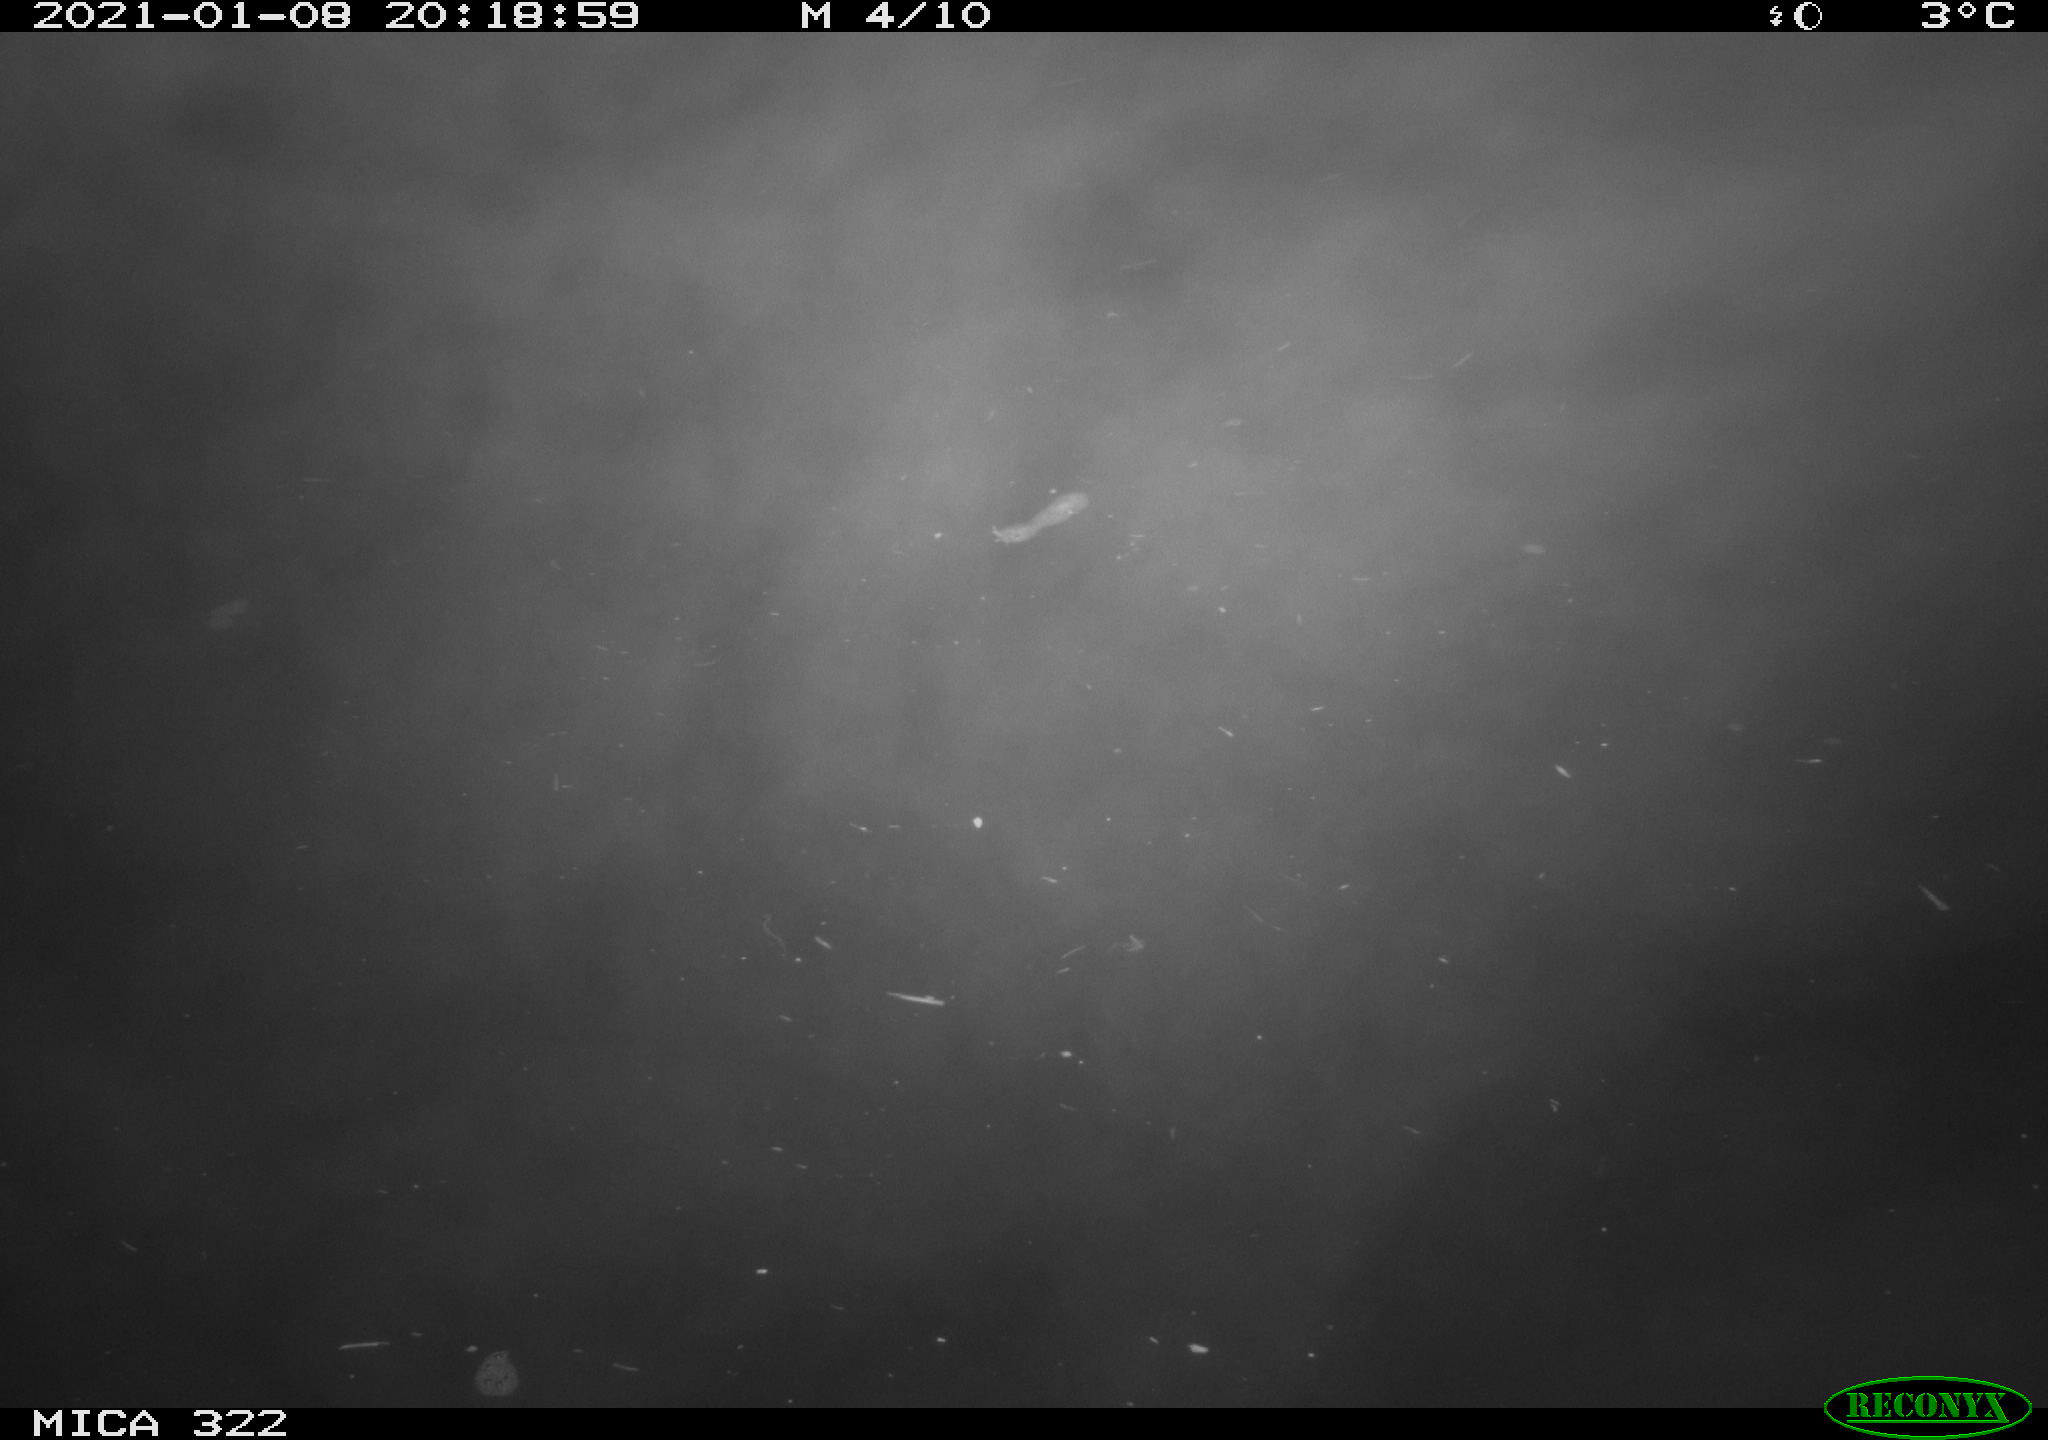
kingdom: Animalia
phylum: Chordata
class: Mammalia
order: Rodentia
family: Muridae
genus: Rattus
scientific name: Rattus norvegicus
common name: Brown rat
